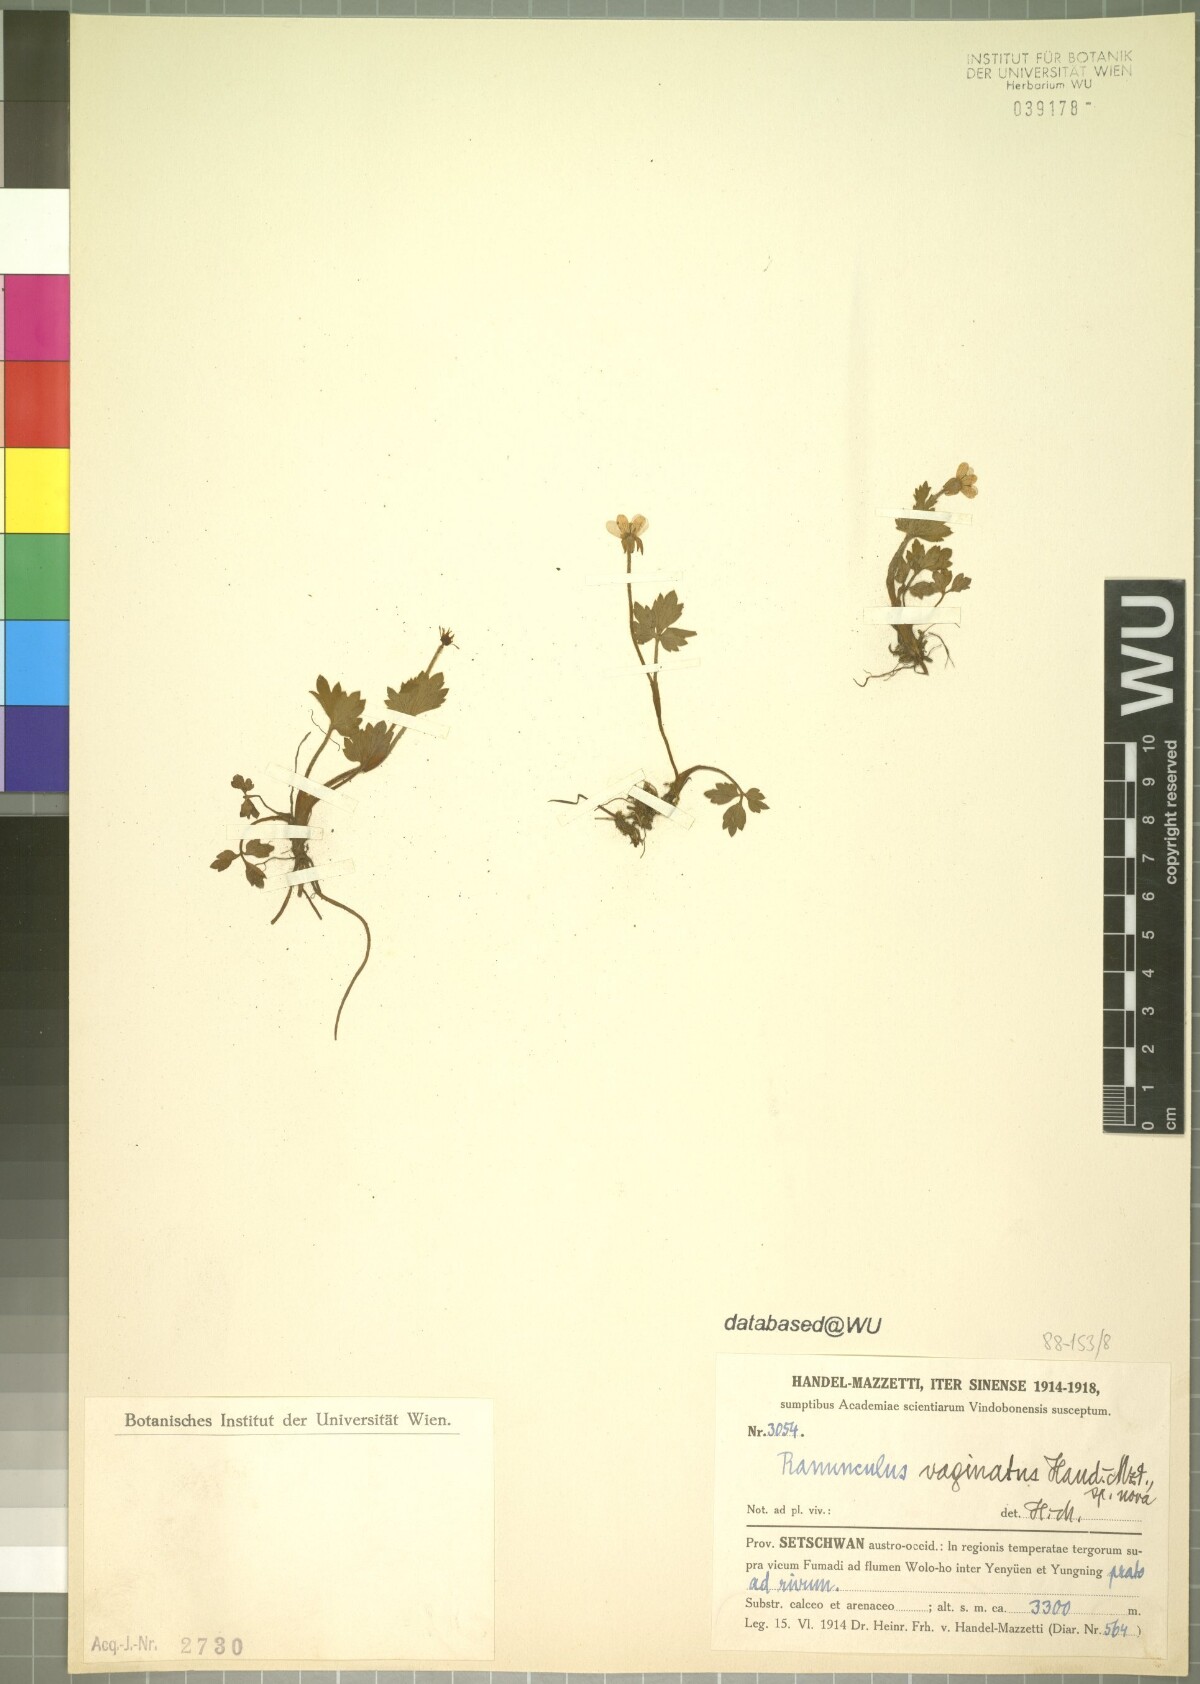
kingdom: Plantae
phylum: Tracheophyta
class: Magnoliopsida
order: Ranunculales
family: Ranunculaceae
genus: Ranunculus
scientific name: Ranunculus sinovaginatus
